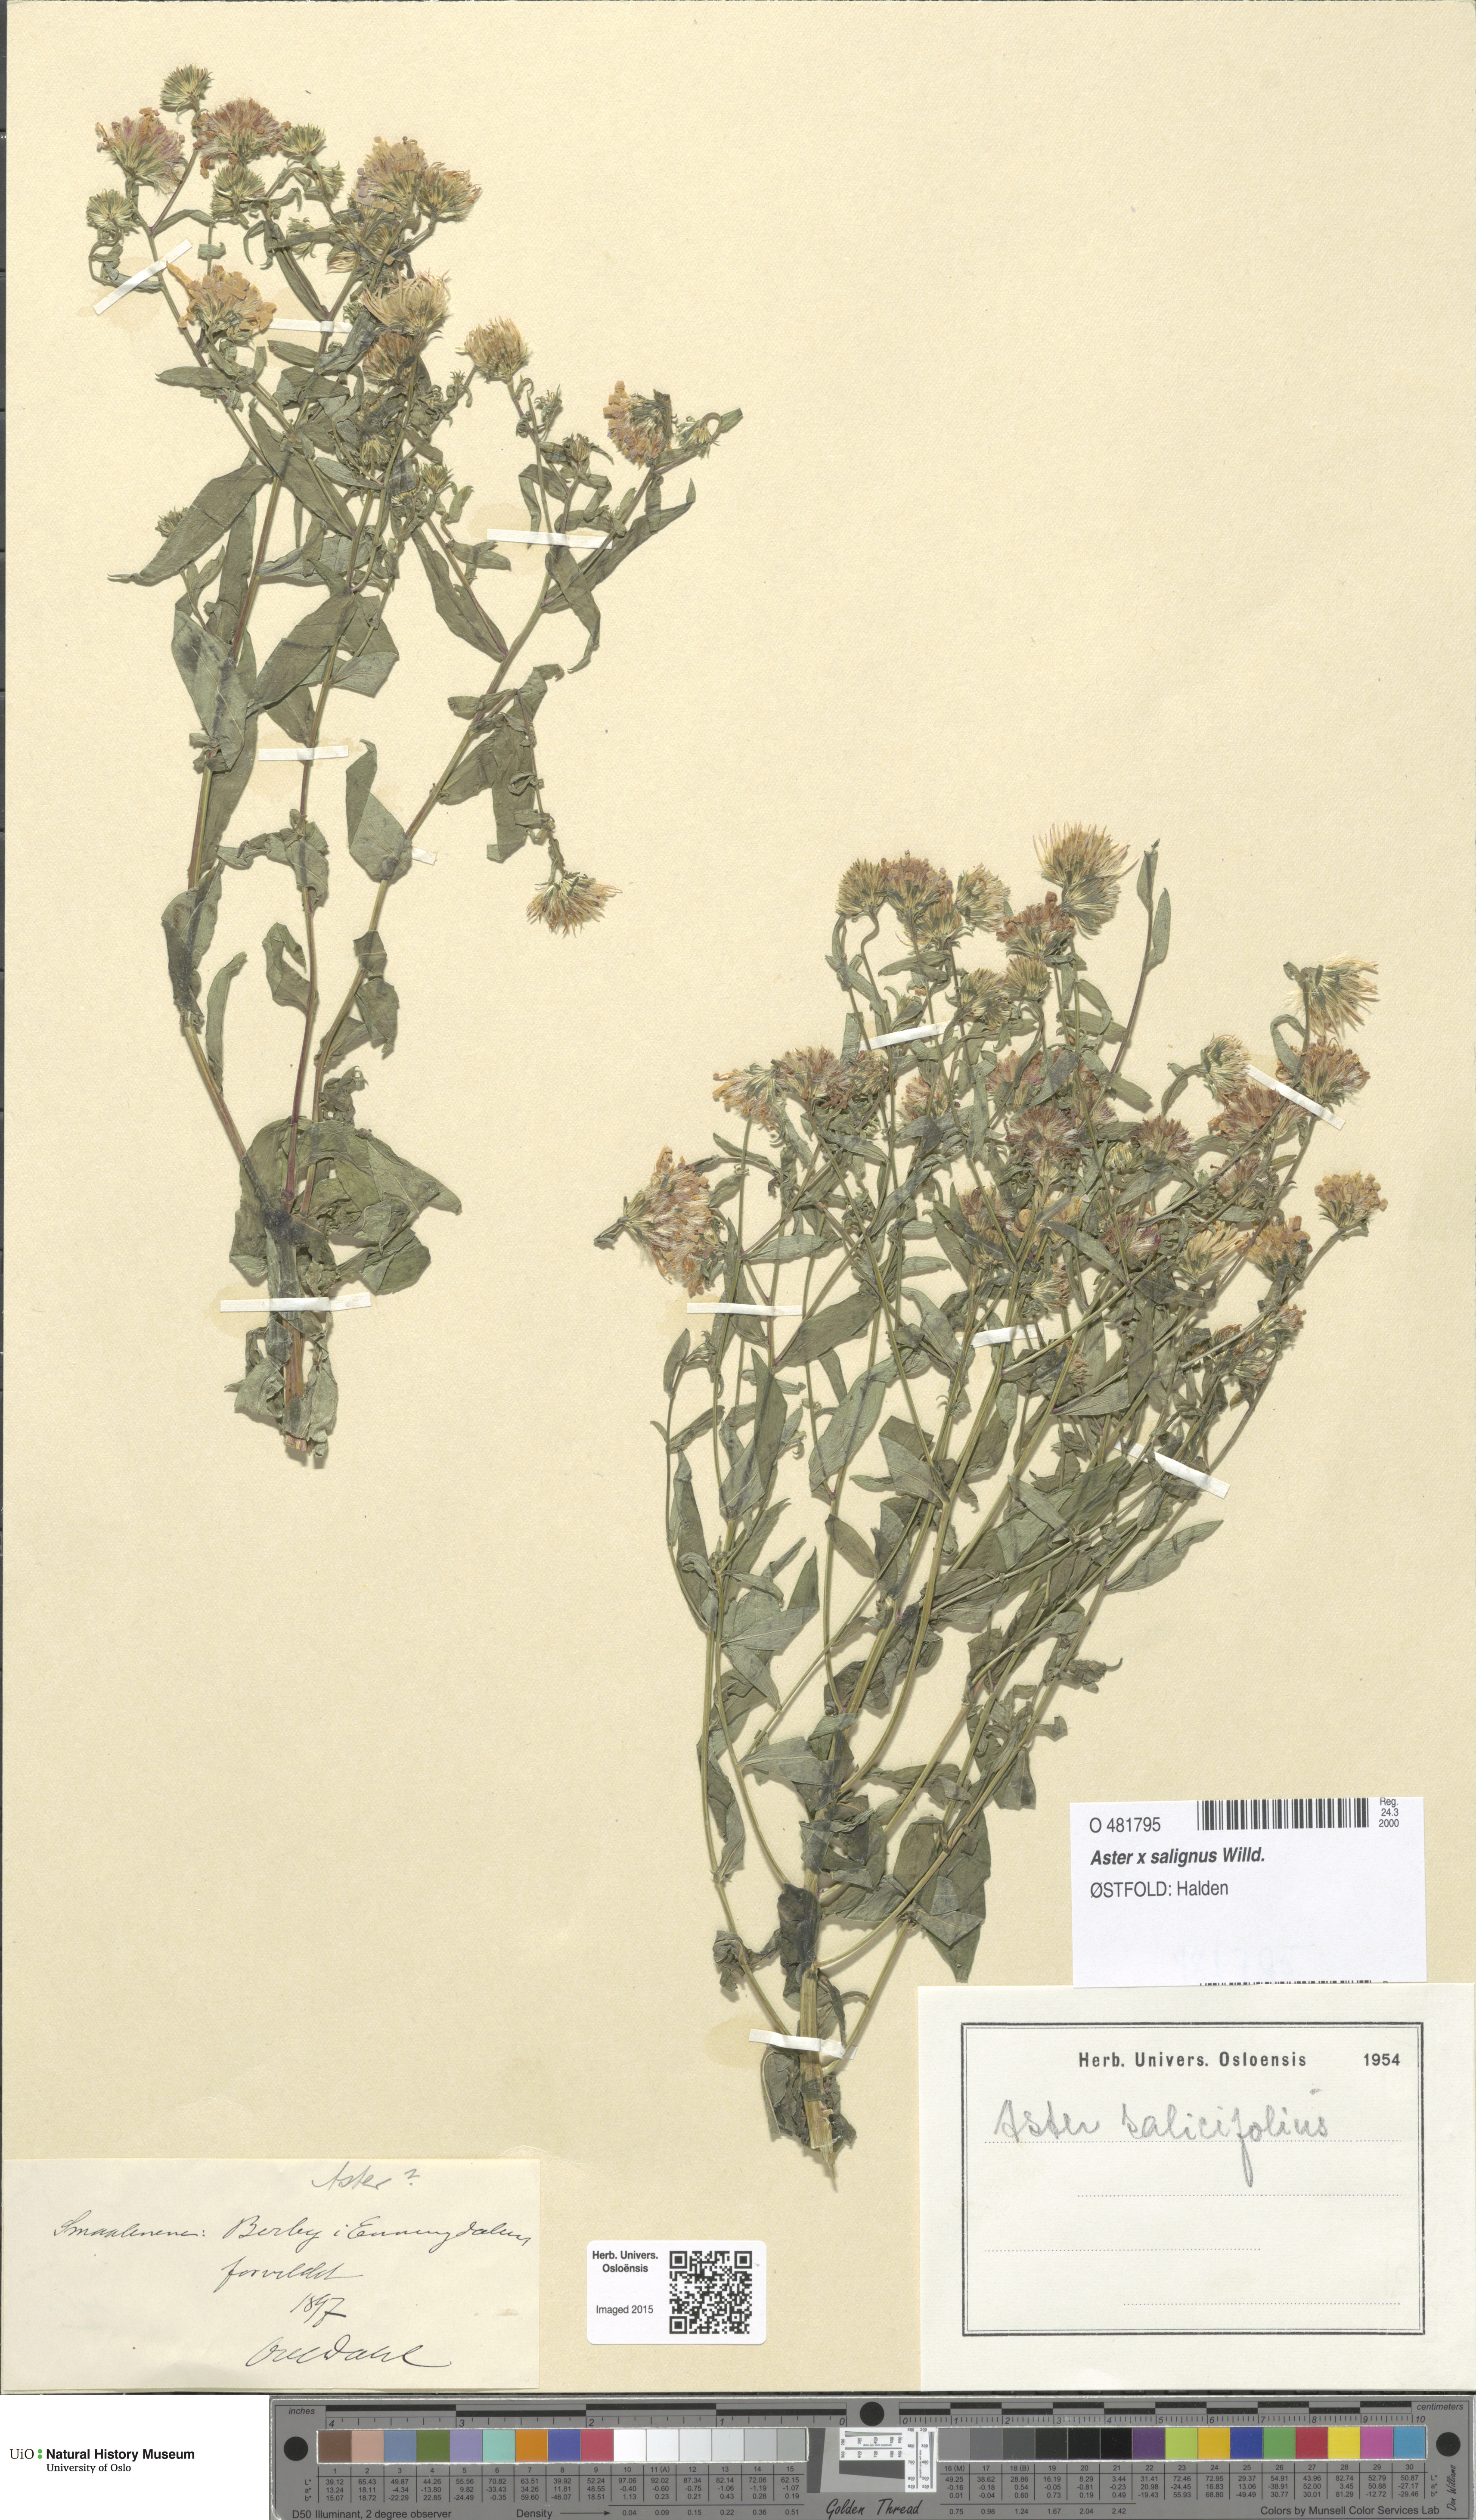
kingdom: Plantae
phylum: Tracheophyta
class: Magnoliopsida
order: Asterales
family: Asteraceae
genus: Symphyotrichum
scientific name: Symphyotrichum novi-belgii
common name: Michaelmas daisy
